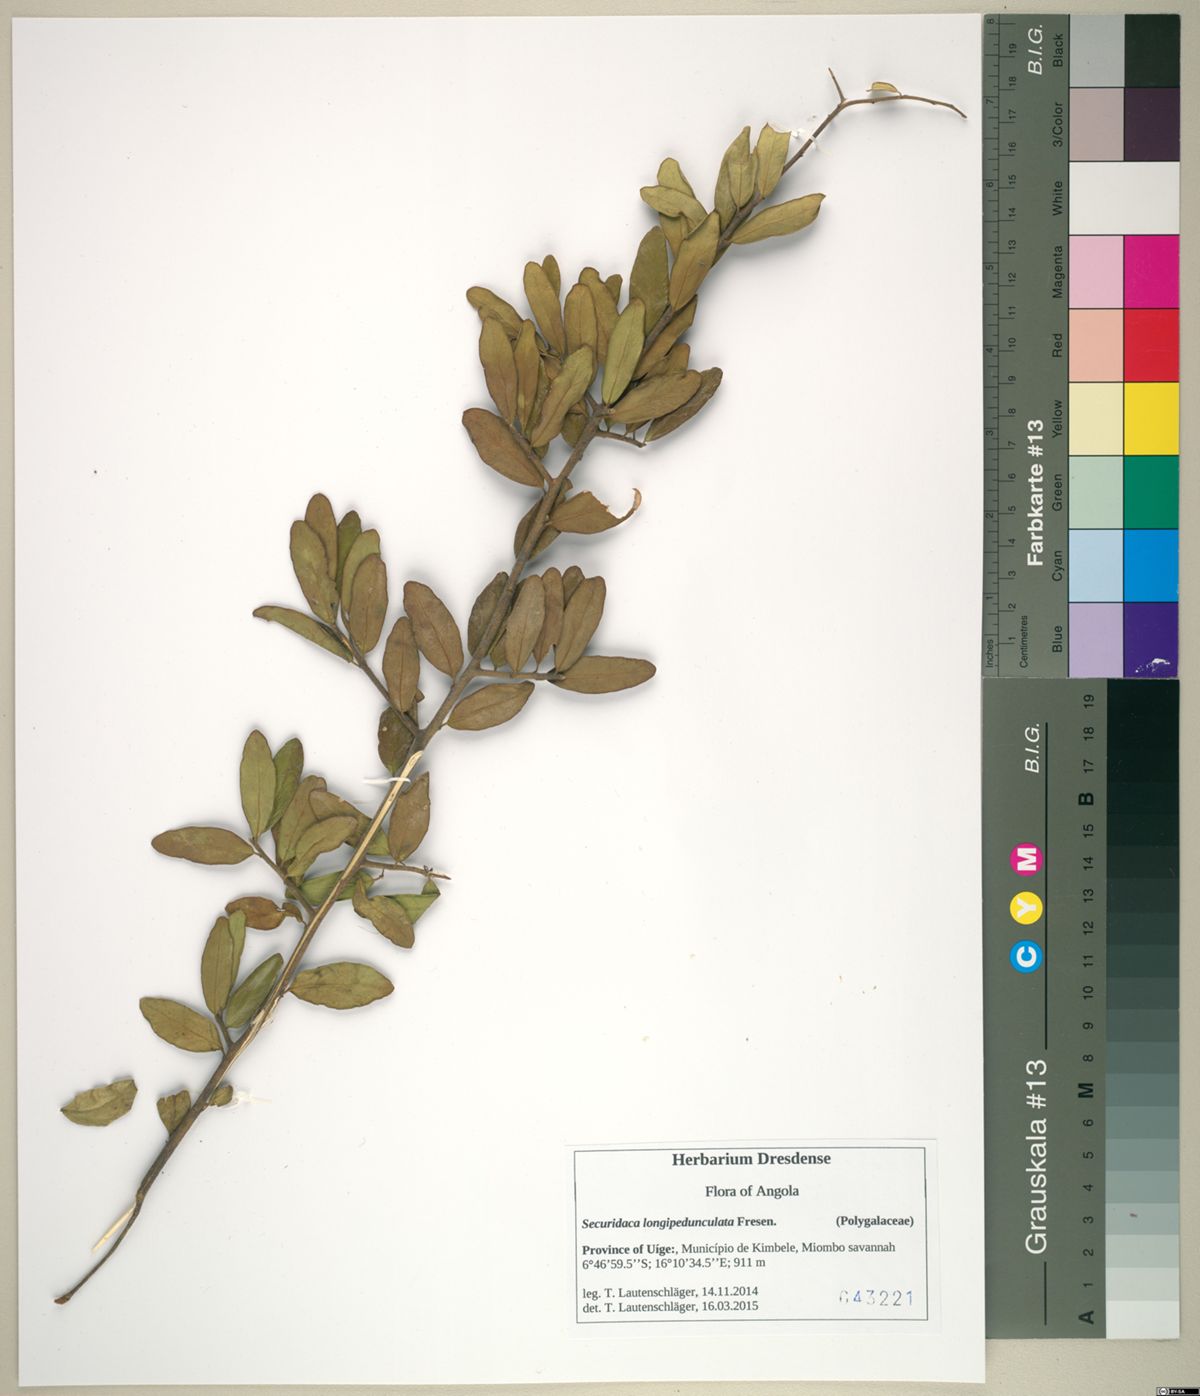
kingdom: Plantae
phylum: Tracheophyta
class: Magnoliopsida
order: Fabales
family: Polygalaceae
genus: Securidaca
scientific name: Securidaca longepedunculata
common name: Violet tree
